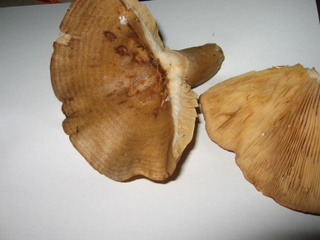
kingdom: Fungi
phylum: Basidiomycota
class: Agaricomycetes
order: Russulales
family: Russulaceae
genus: Lactarius
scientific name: Lactarius circellatus
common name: avnbøg-mælkehat
